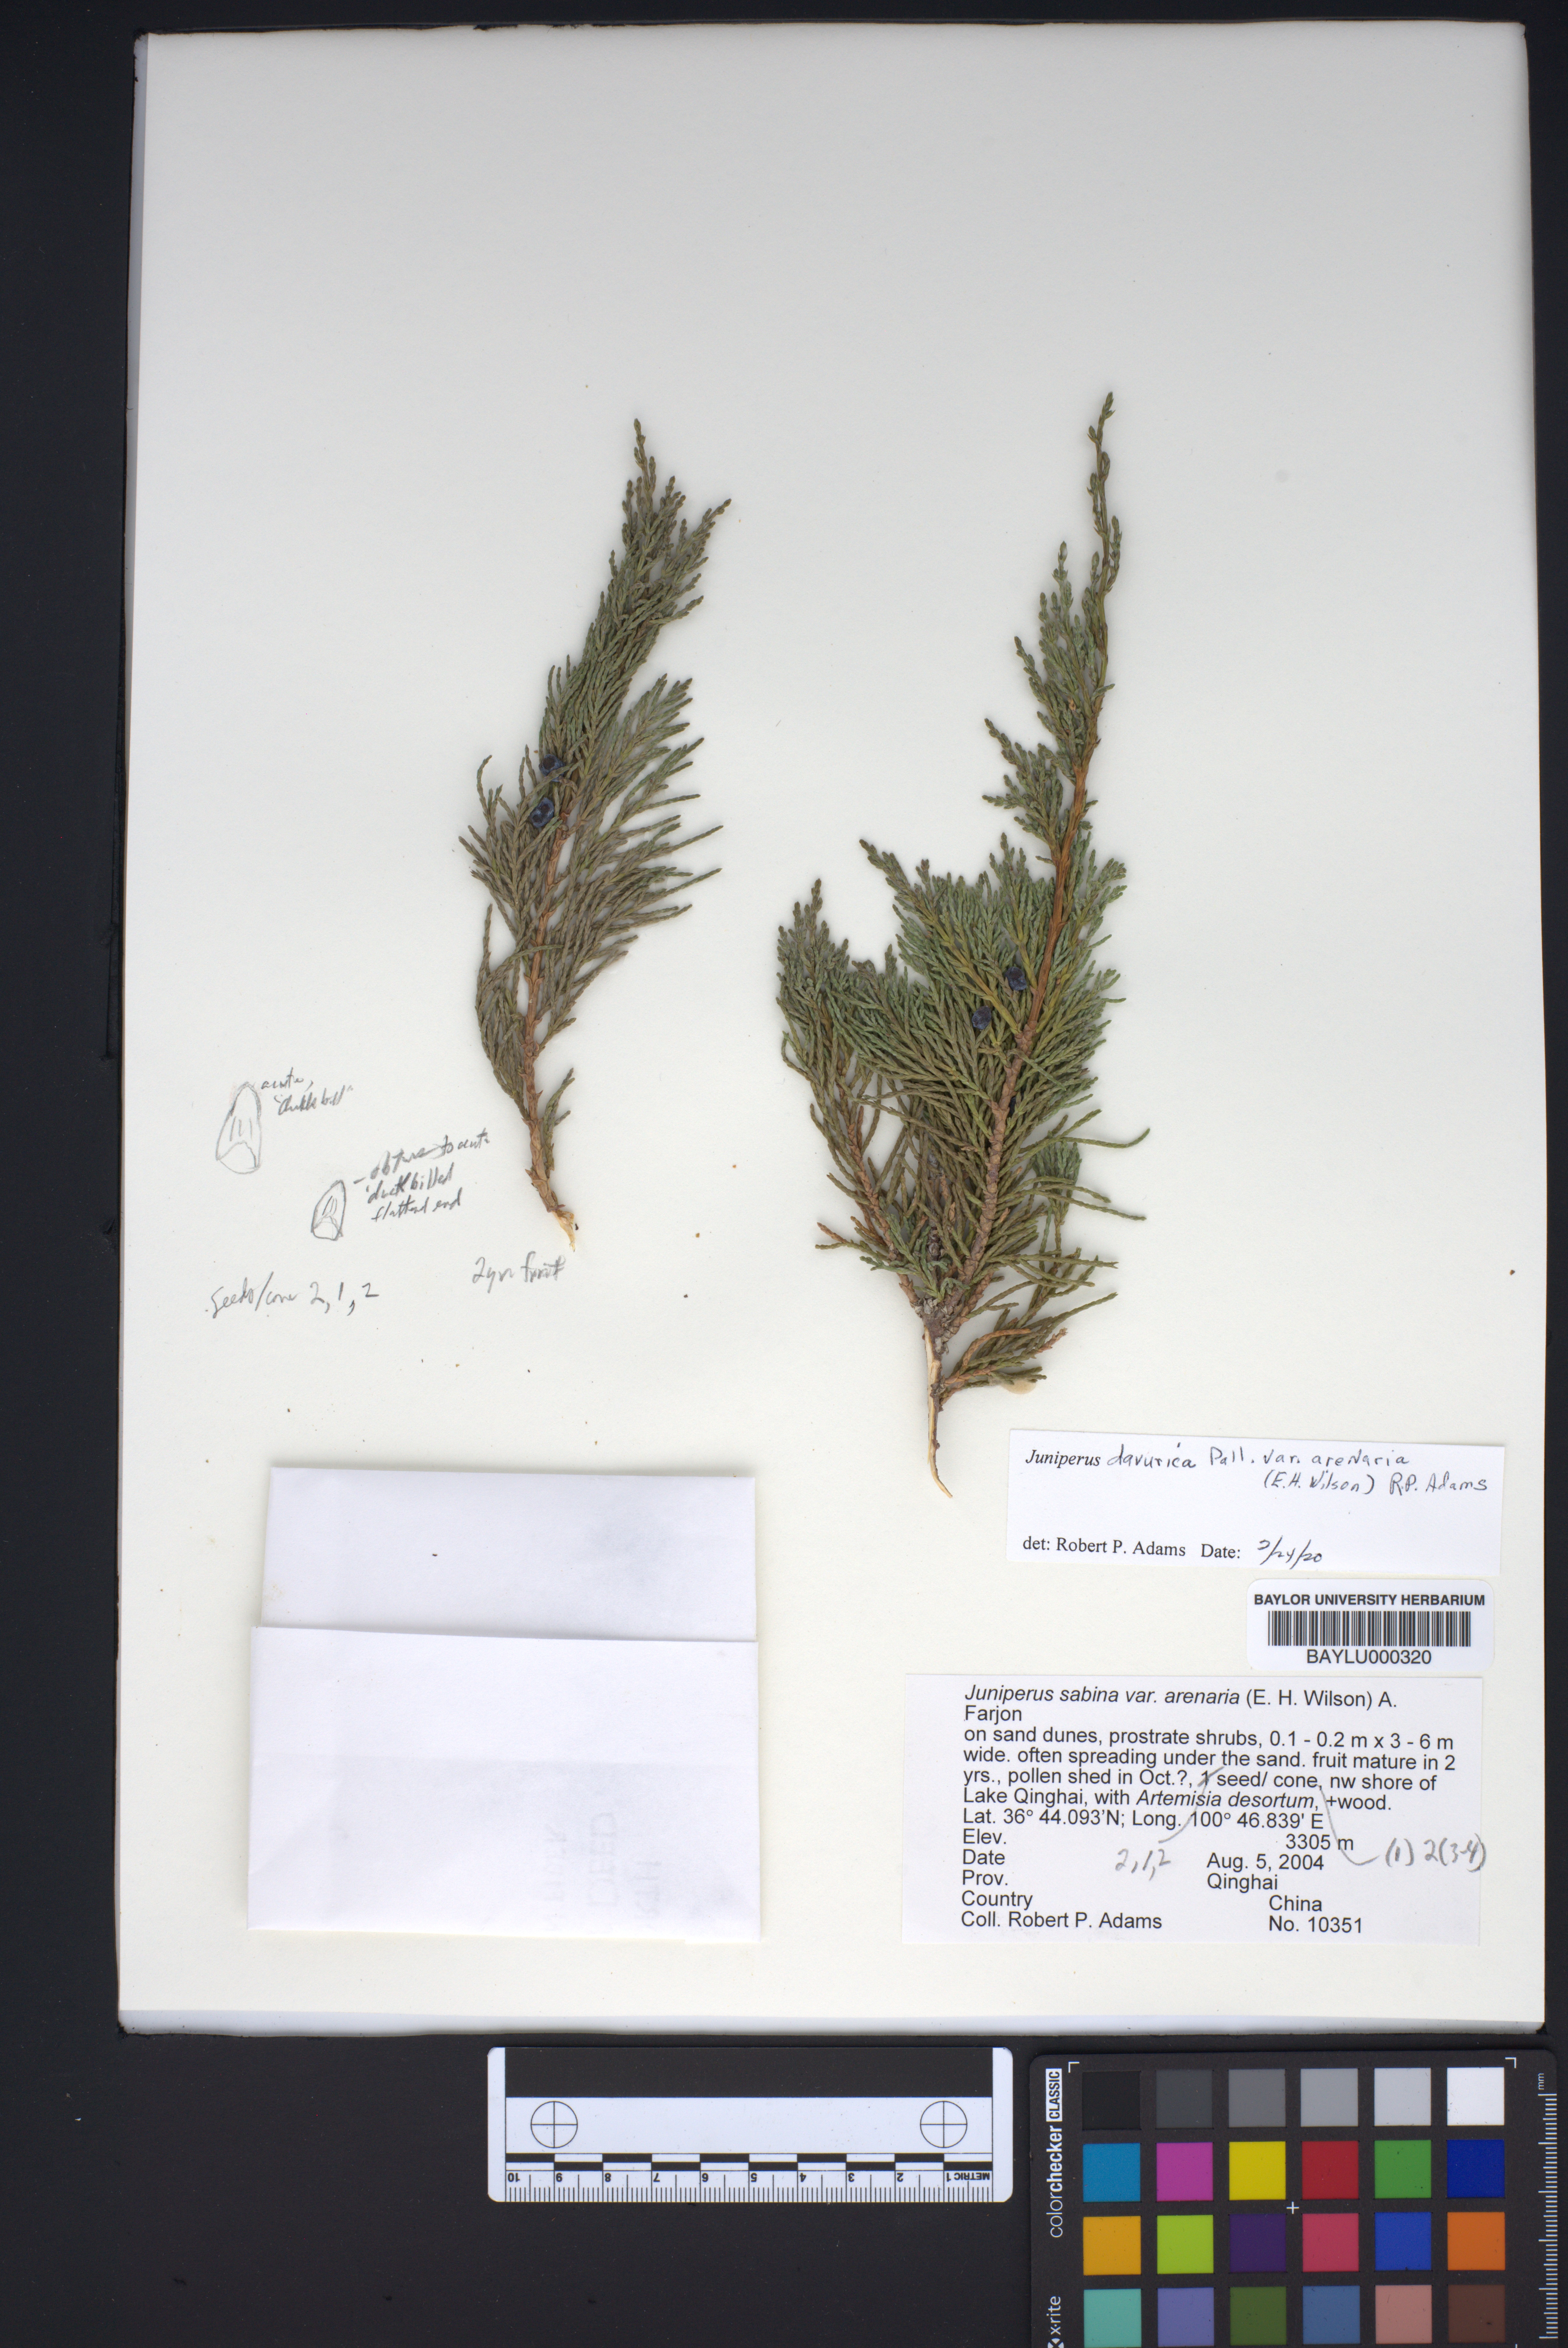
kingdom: Plantae
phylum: Tracheophyta
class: Pinopsida
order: Pinales
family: Cupressaceae
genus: Juniperus
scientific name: Juniperus sabina
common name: Savin
